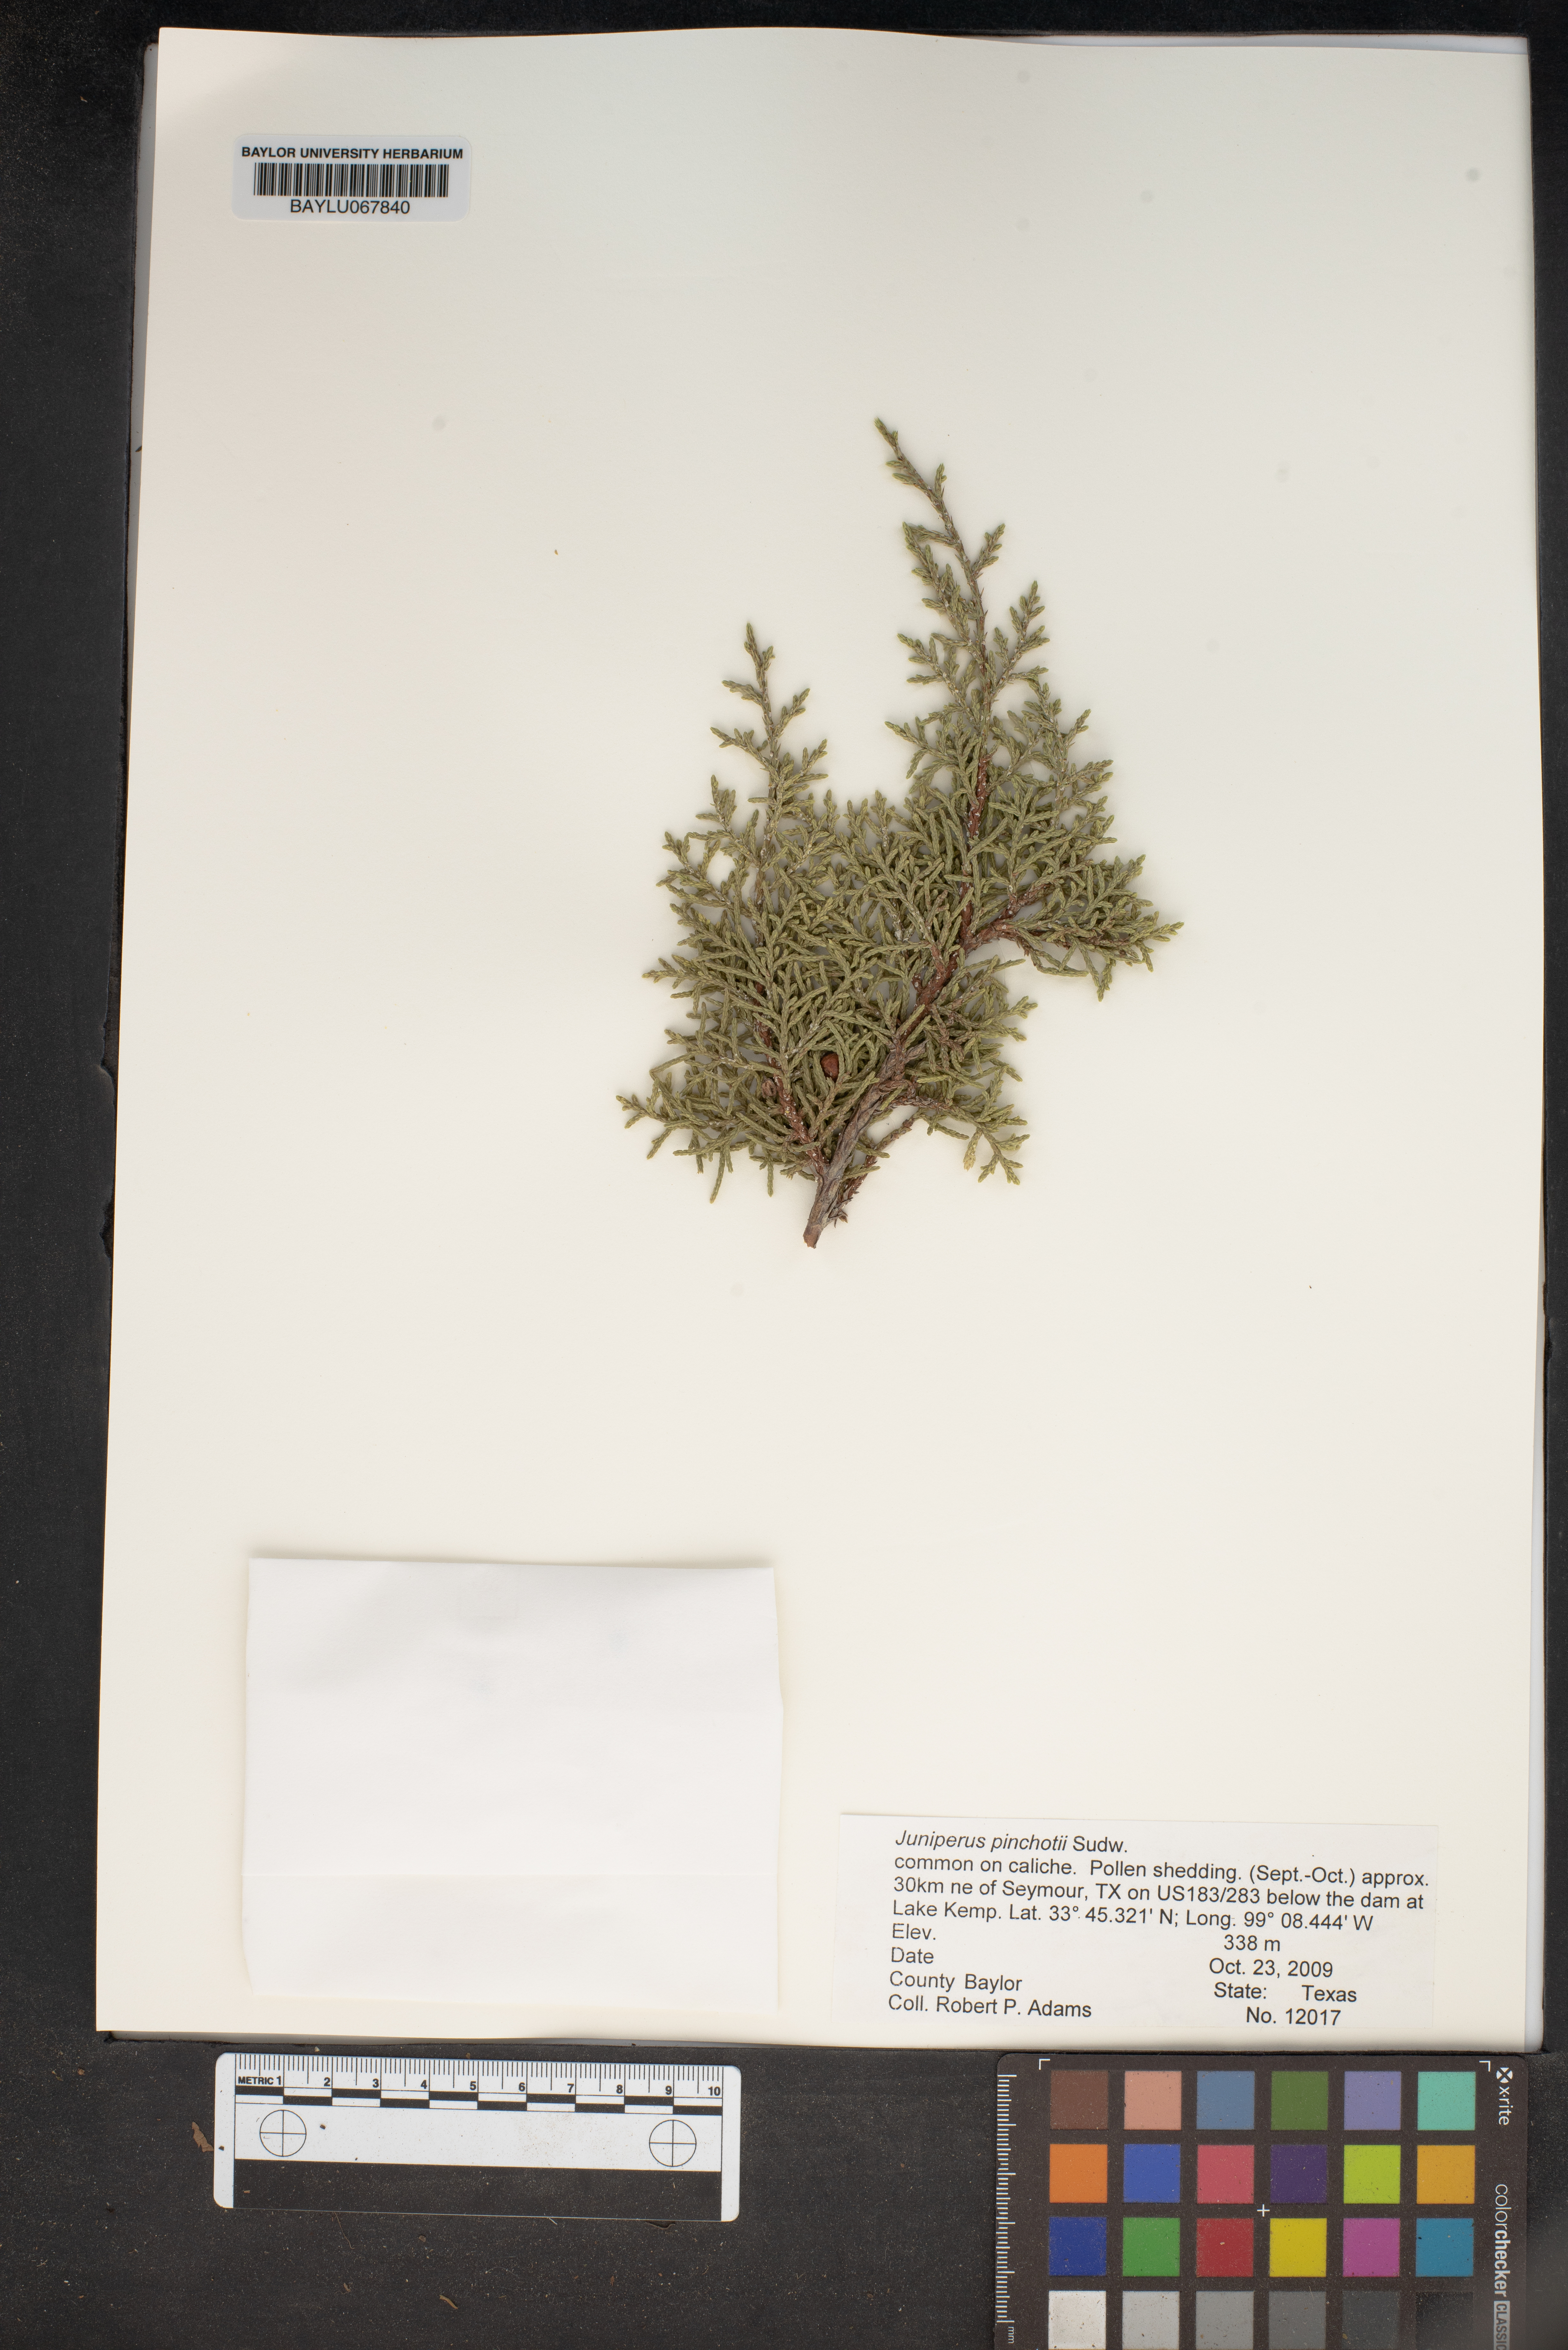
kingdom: Plantae
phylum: Tracheophyta
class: Pinopsida
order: Pinales
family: Cupressaceae
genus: Juniperus
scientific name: Juniperus pinchotii
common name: Pinchot juniper
